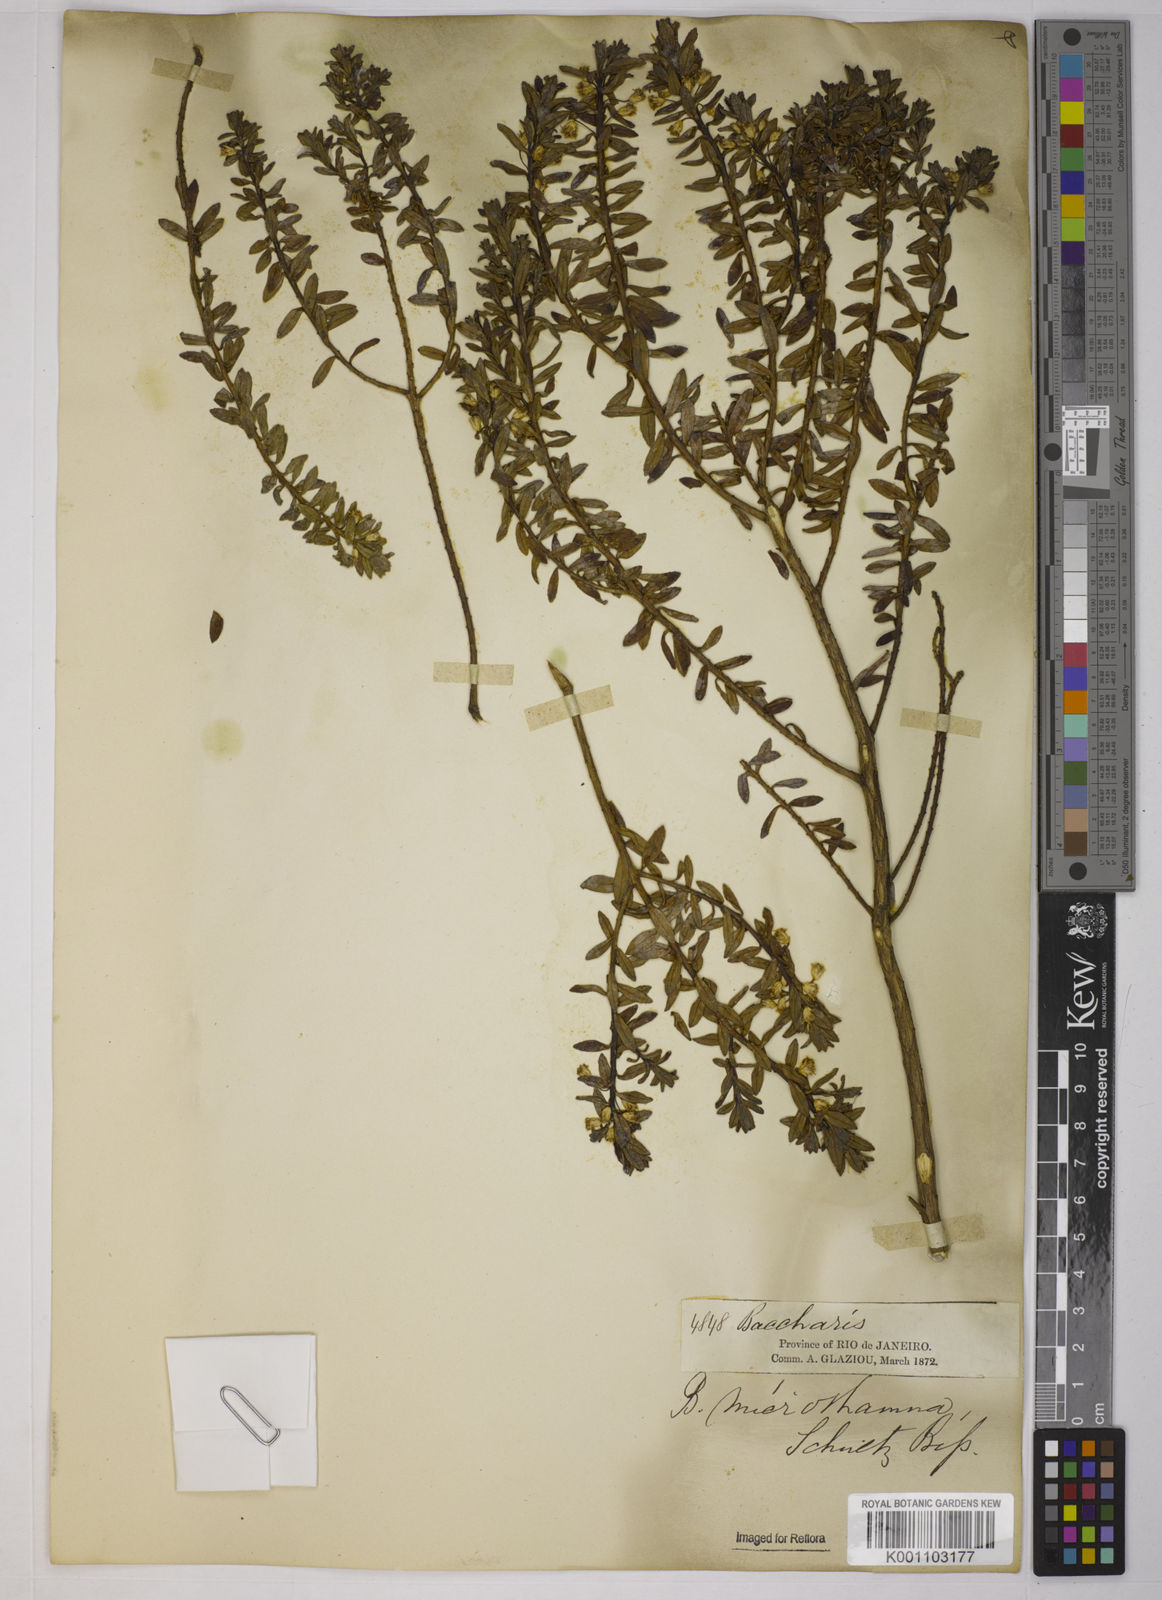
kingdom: Plantae
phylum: Tracheophyta
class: Magnoliopsida
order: Asterales
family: Asteraceae
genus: Baccharis
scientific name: Baccharis selloi
